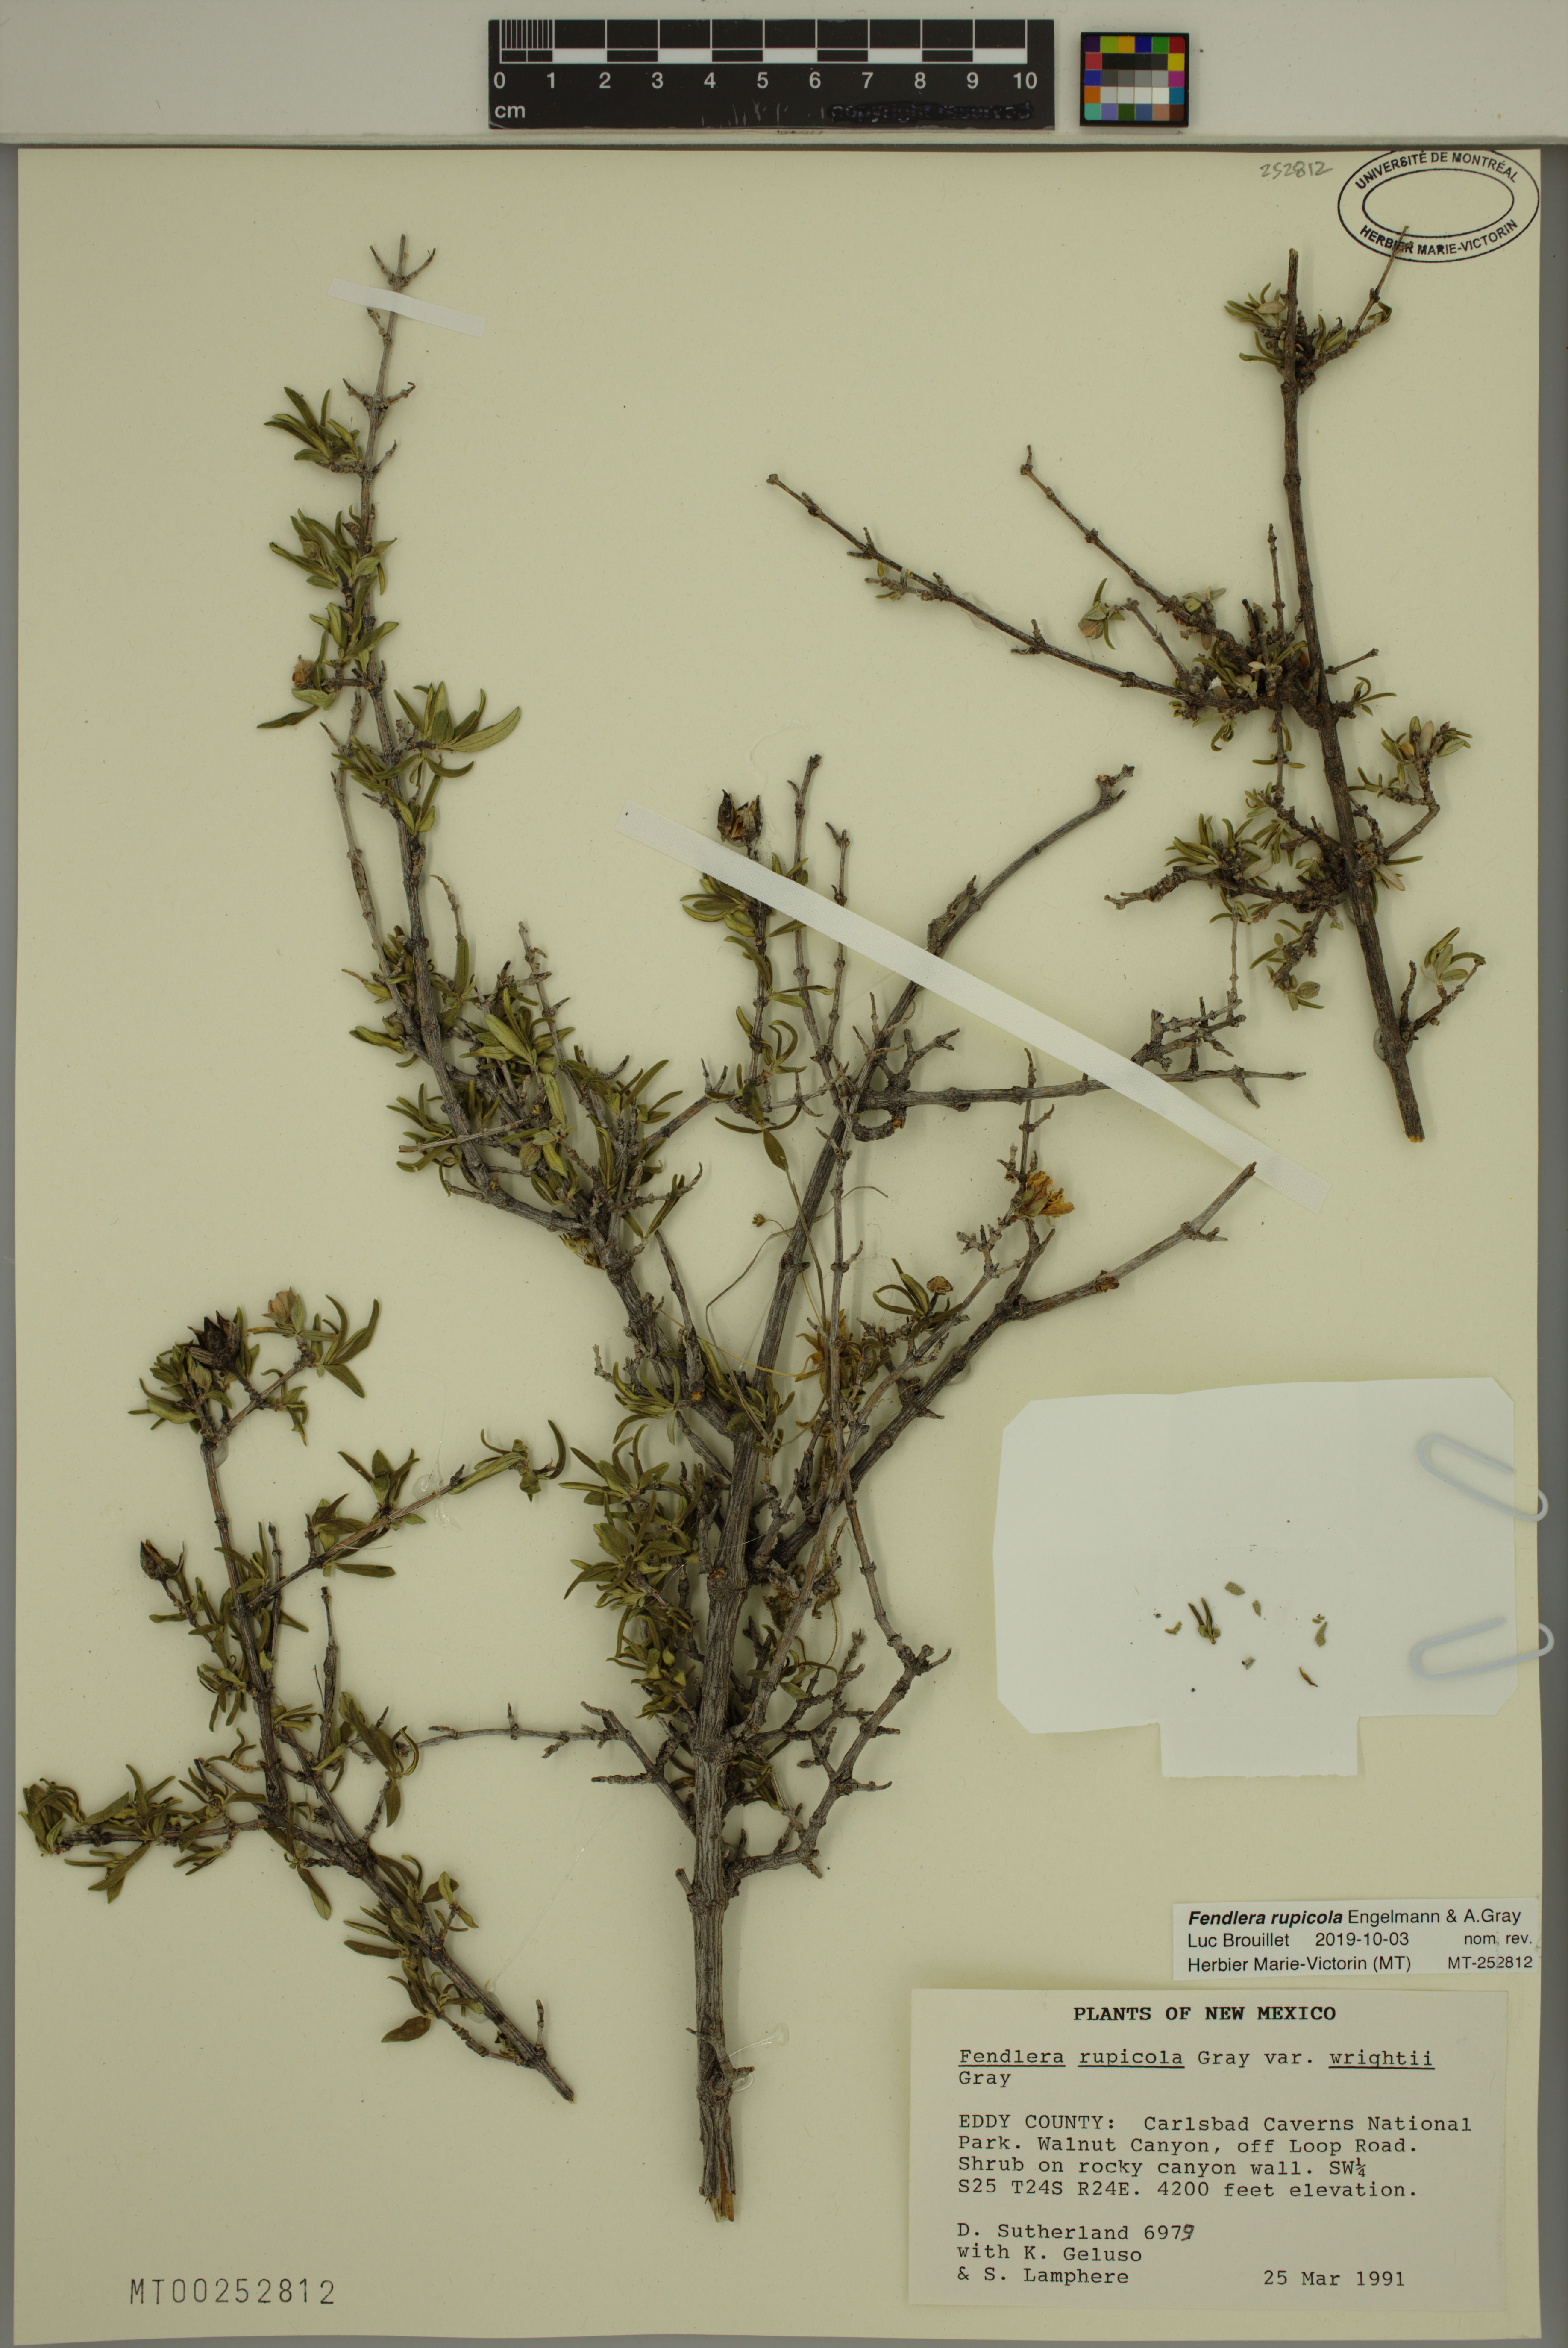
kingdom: Plantae
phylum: Tracheophyta
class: Magnoliopsida
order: Cornales
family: Hydrangeaceae
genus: Fendlera
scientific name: Fendlera rupicola
